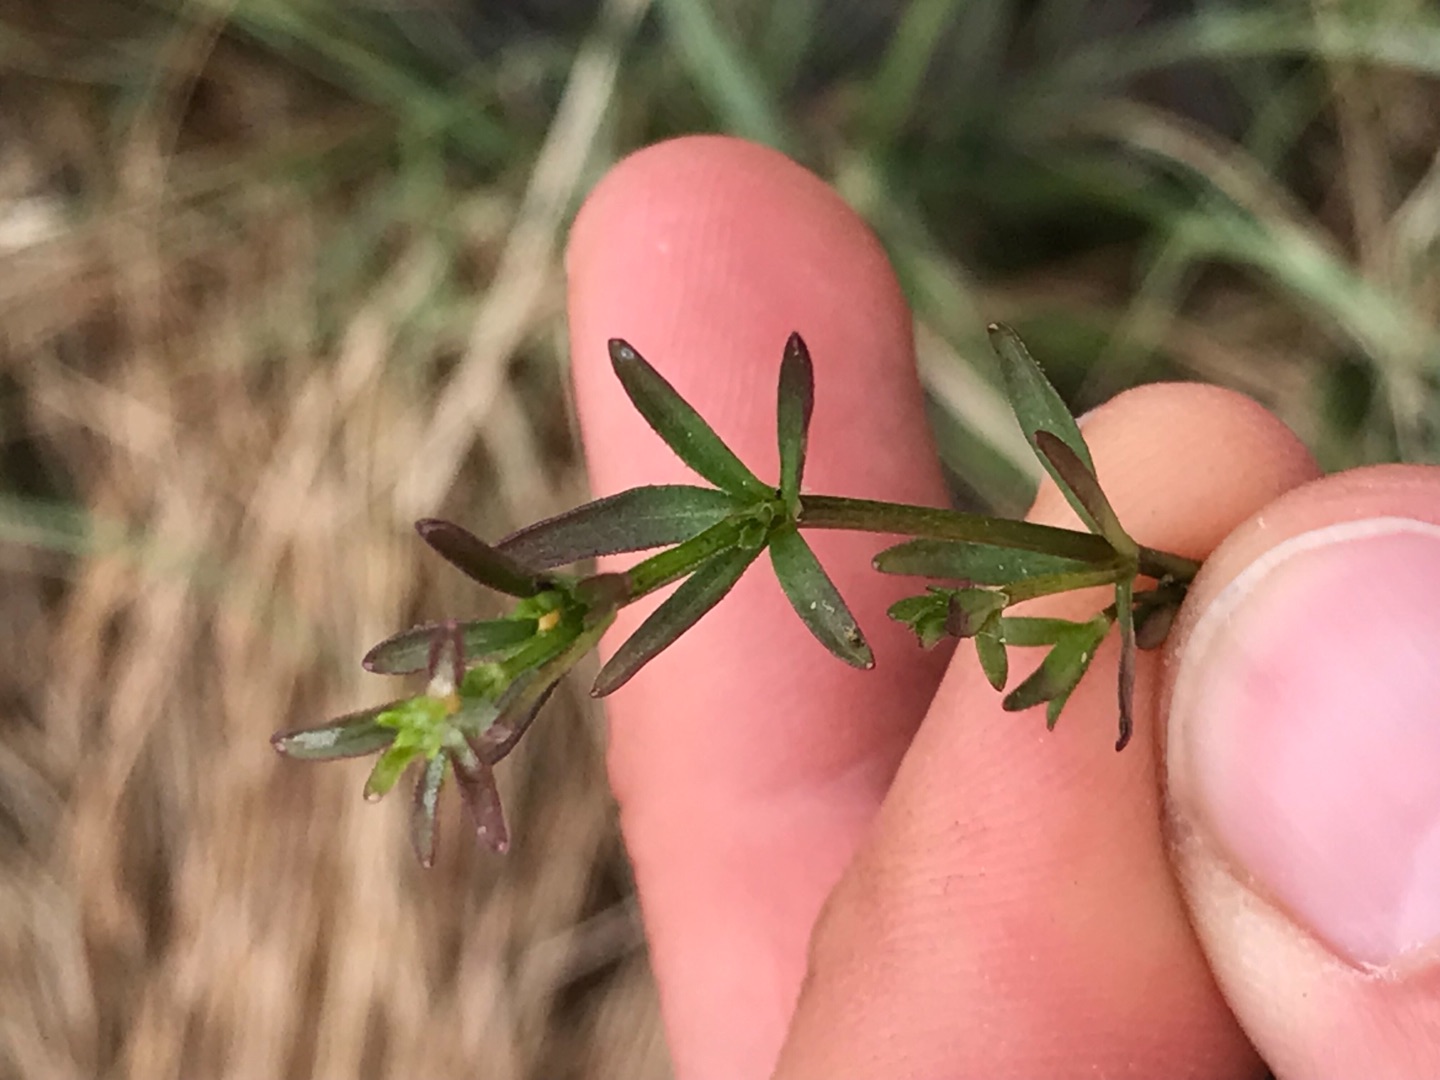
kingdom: Plantae
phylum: Tracheophyta
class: Magnoliopsida
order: Gentianales
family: Rubiaceae
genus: Galium
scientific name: Galium palustre
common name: Kær-snerre
